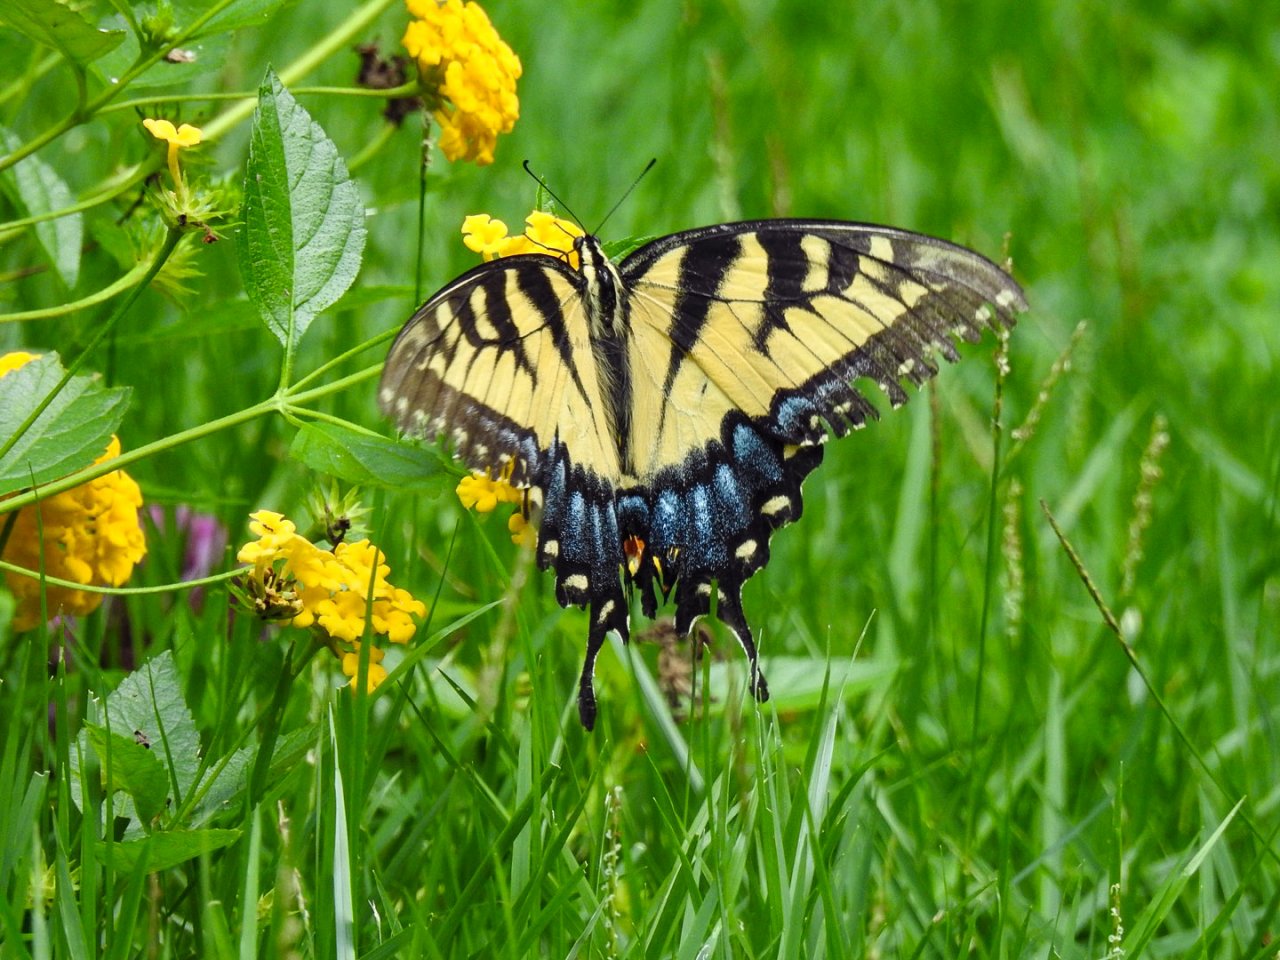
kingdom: Animalia
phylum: Arthropoda
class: Insecta
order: Lepidoptera
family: Papilionidae
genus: Pterourus
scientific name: Pterourus glaucus
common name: Eastern Tiger Swallowtail
